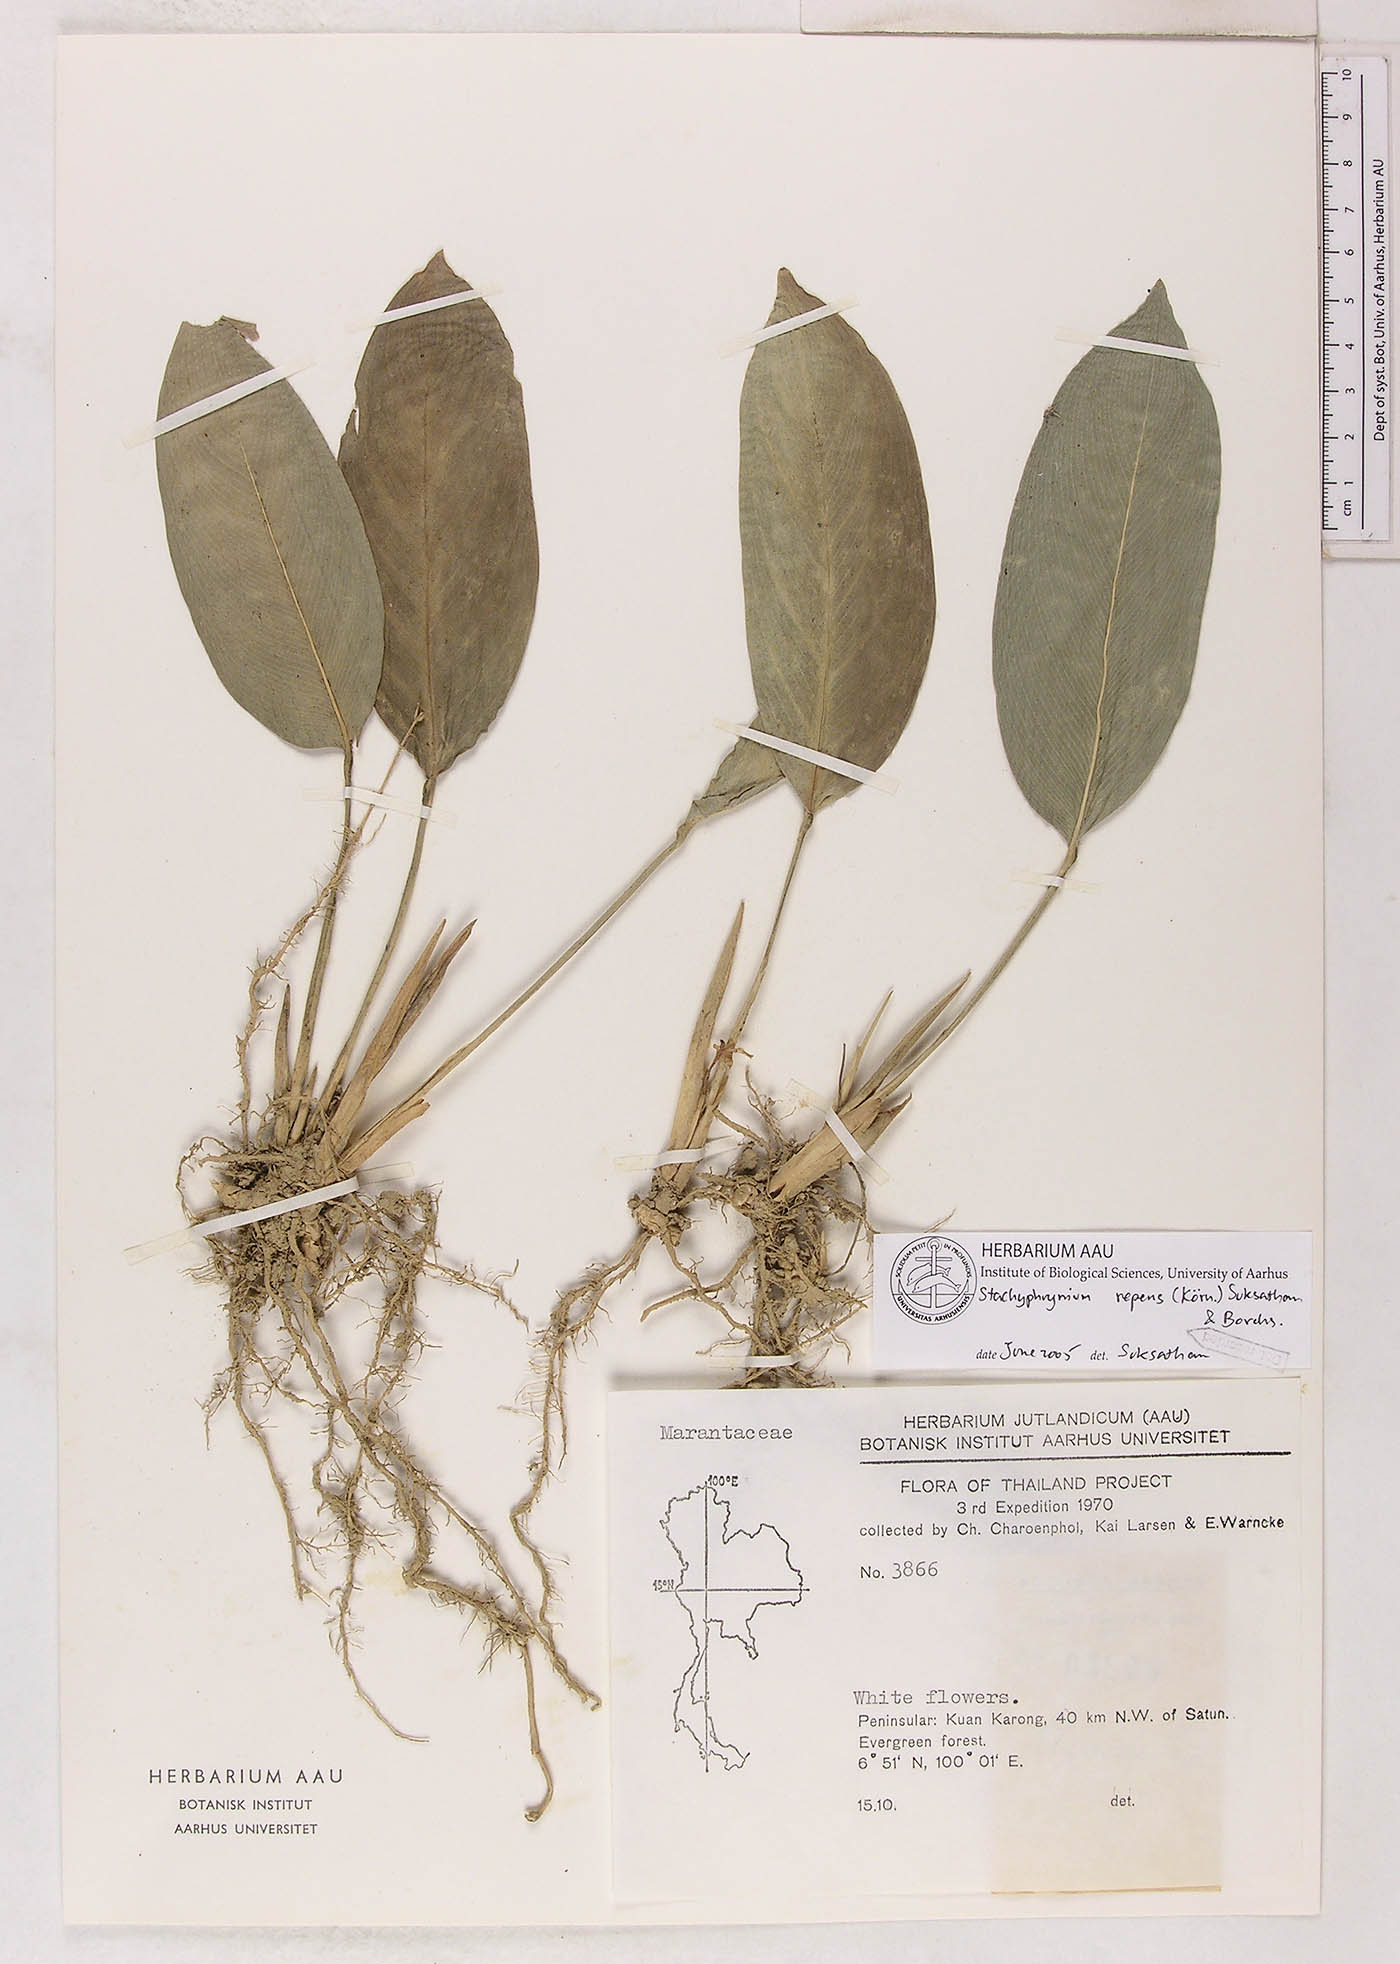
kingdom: Plantae
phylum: Tracheophyta
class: Liliopsida
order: Zingiberales
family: Marantaceae
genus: Stachyphrynium
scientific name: Stachyphrynium repens
